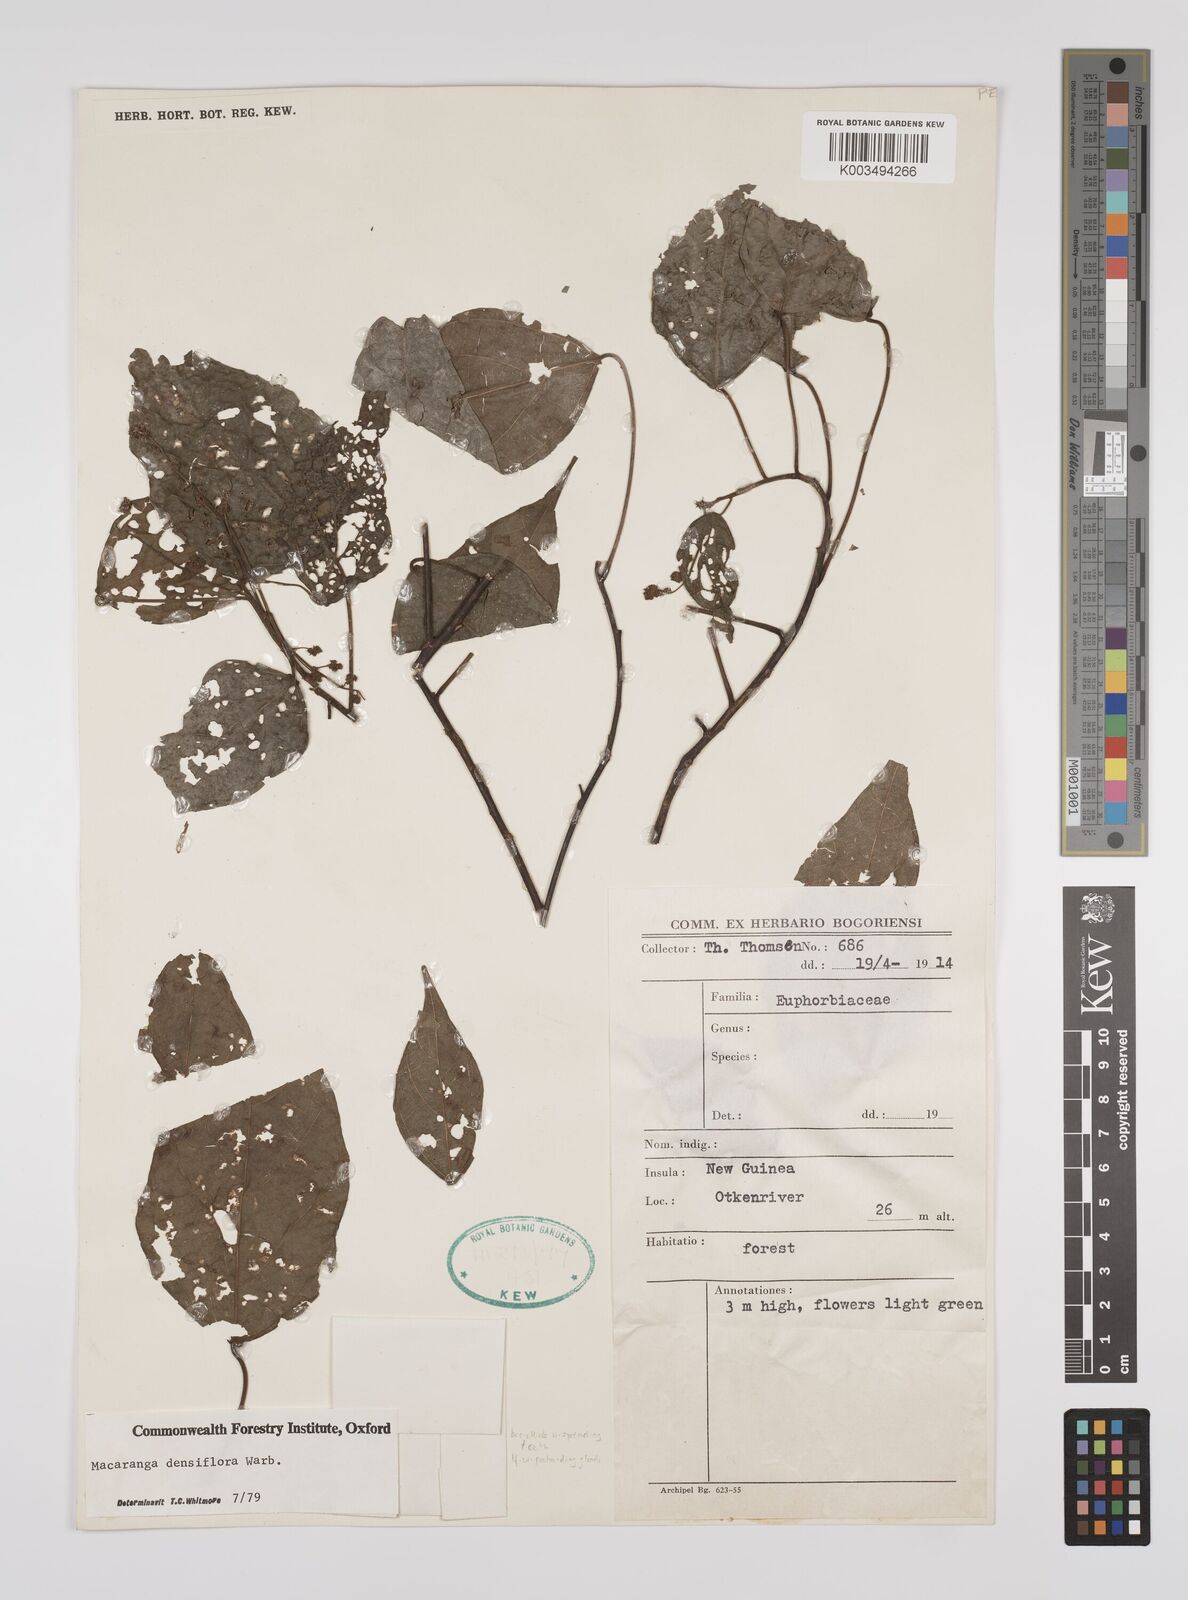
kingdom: Plantae
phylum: Tracheophyta
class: Magnoliopsida
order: Malpighiales
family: Euphorbiaceae
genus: Macaranga
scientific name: Macaranga densiflora
